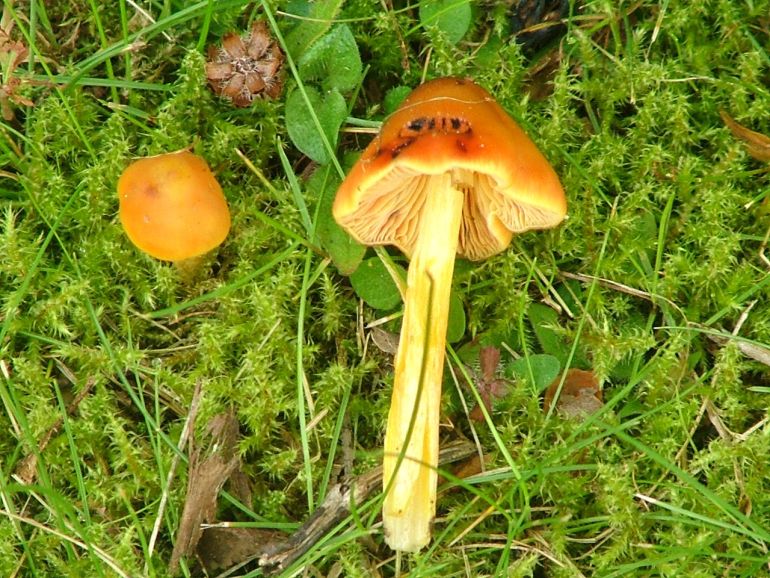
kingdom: Fungi
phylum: Basidiomycota
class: Agaricomycetes
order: Agaricales
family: Hygrophoraceae
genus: Hygrocybe
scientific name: Hygrocybe conica
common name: kegle-vokshat
